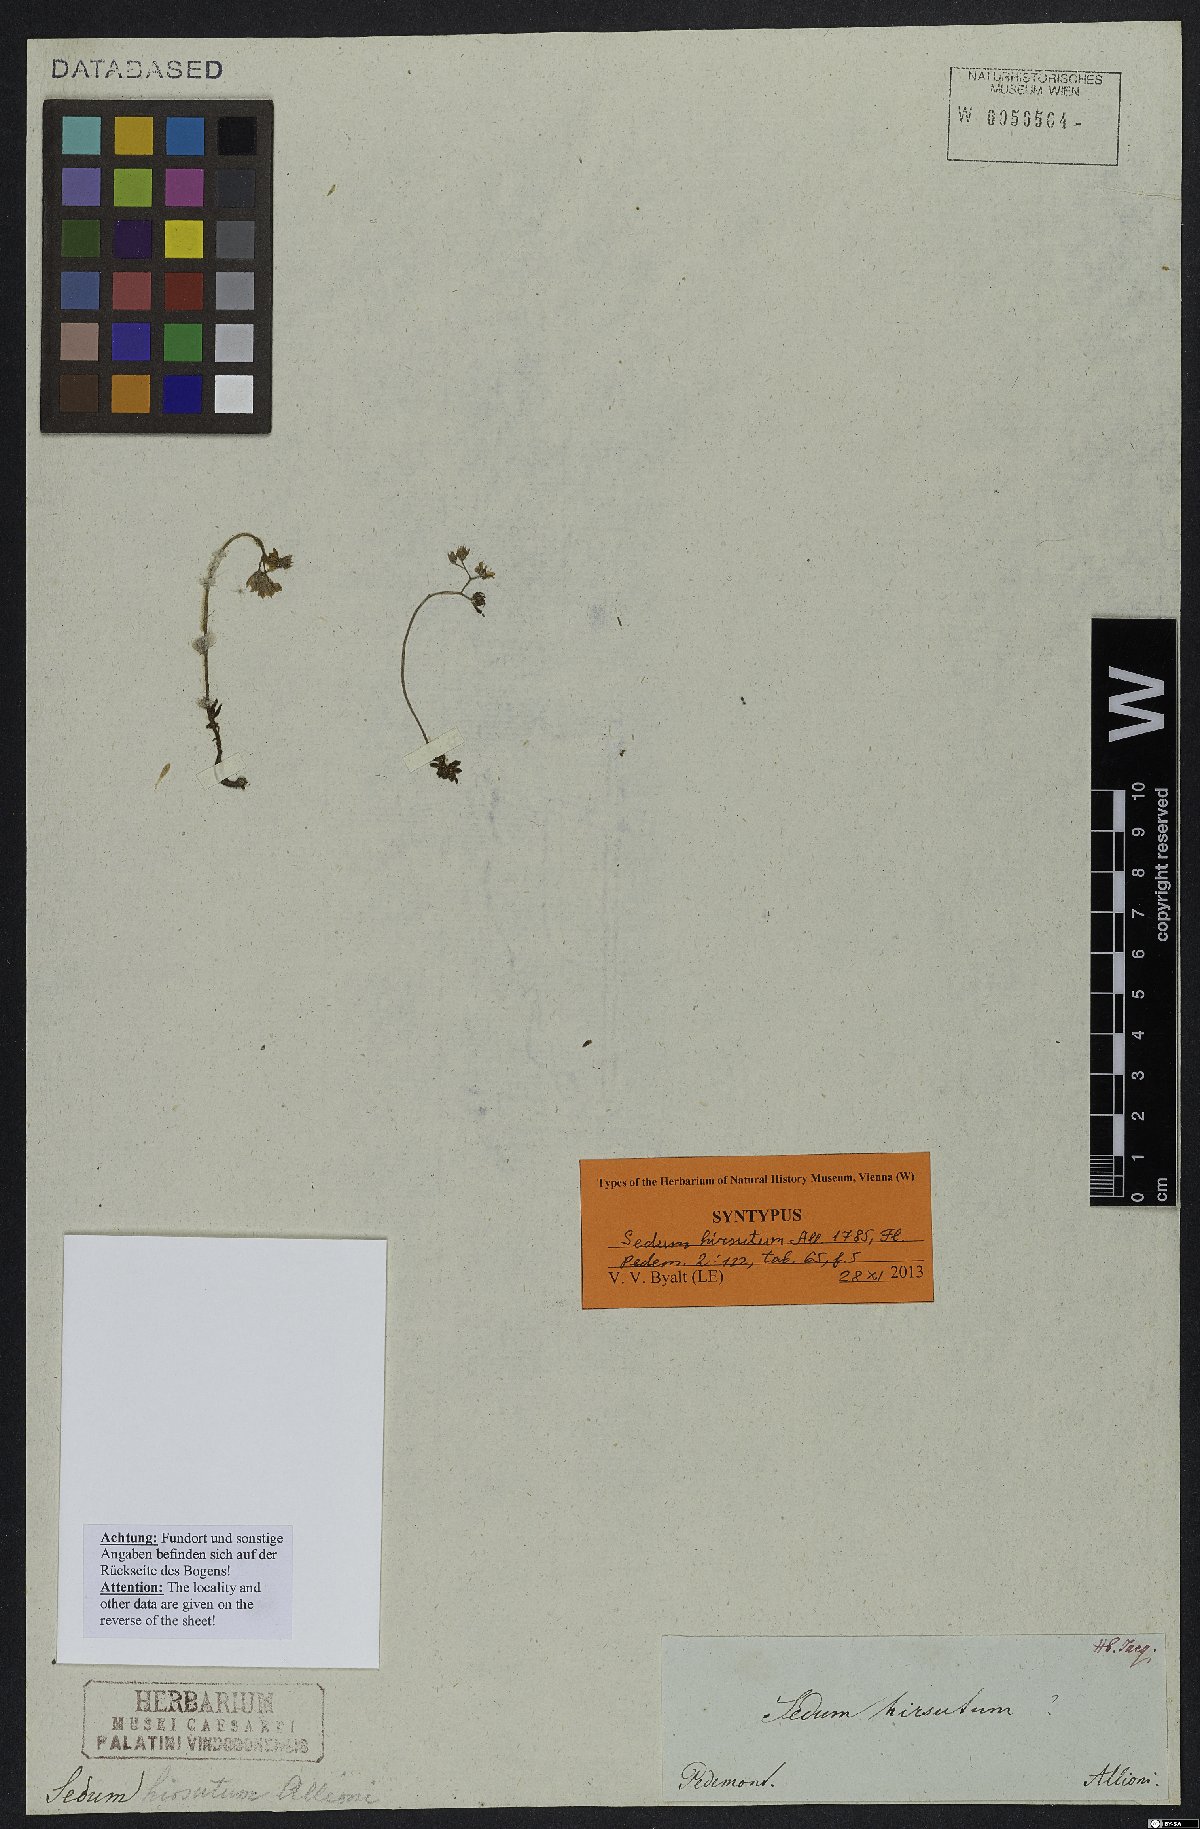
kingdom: Plantae
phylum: Tracheophyta
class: Magnoliopsida
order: Saxifragales
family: Crassulaceae
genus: Sedum
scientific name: Sedum hirsutum
